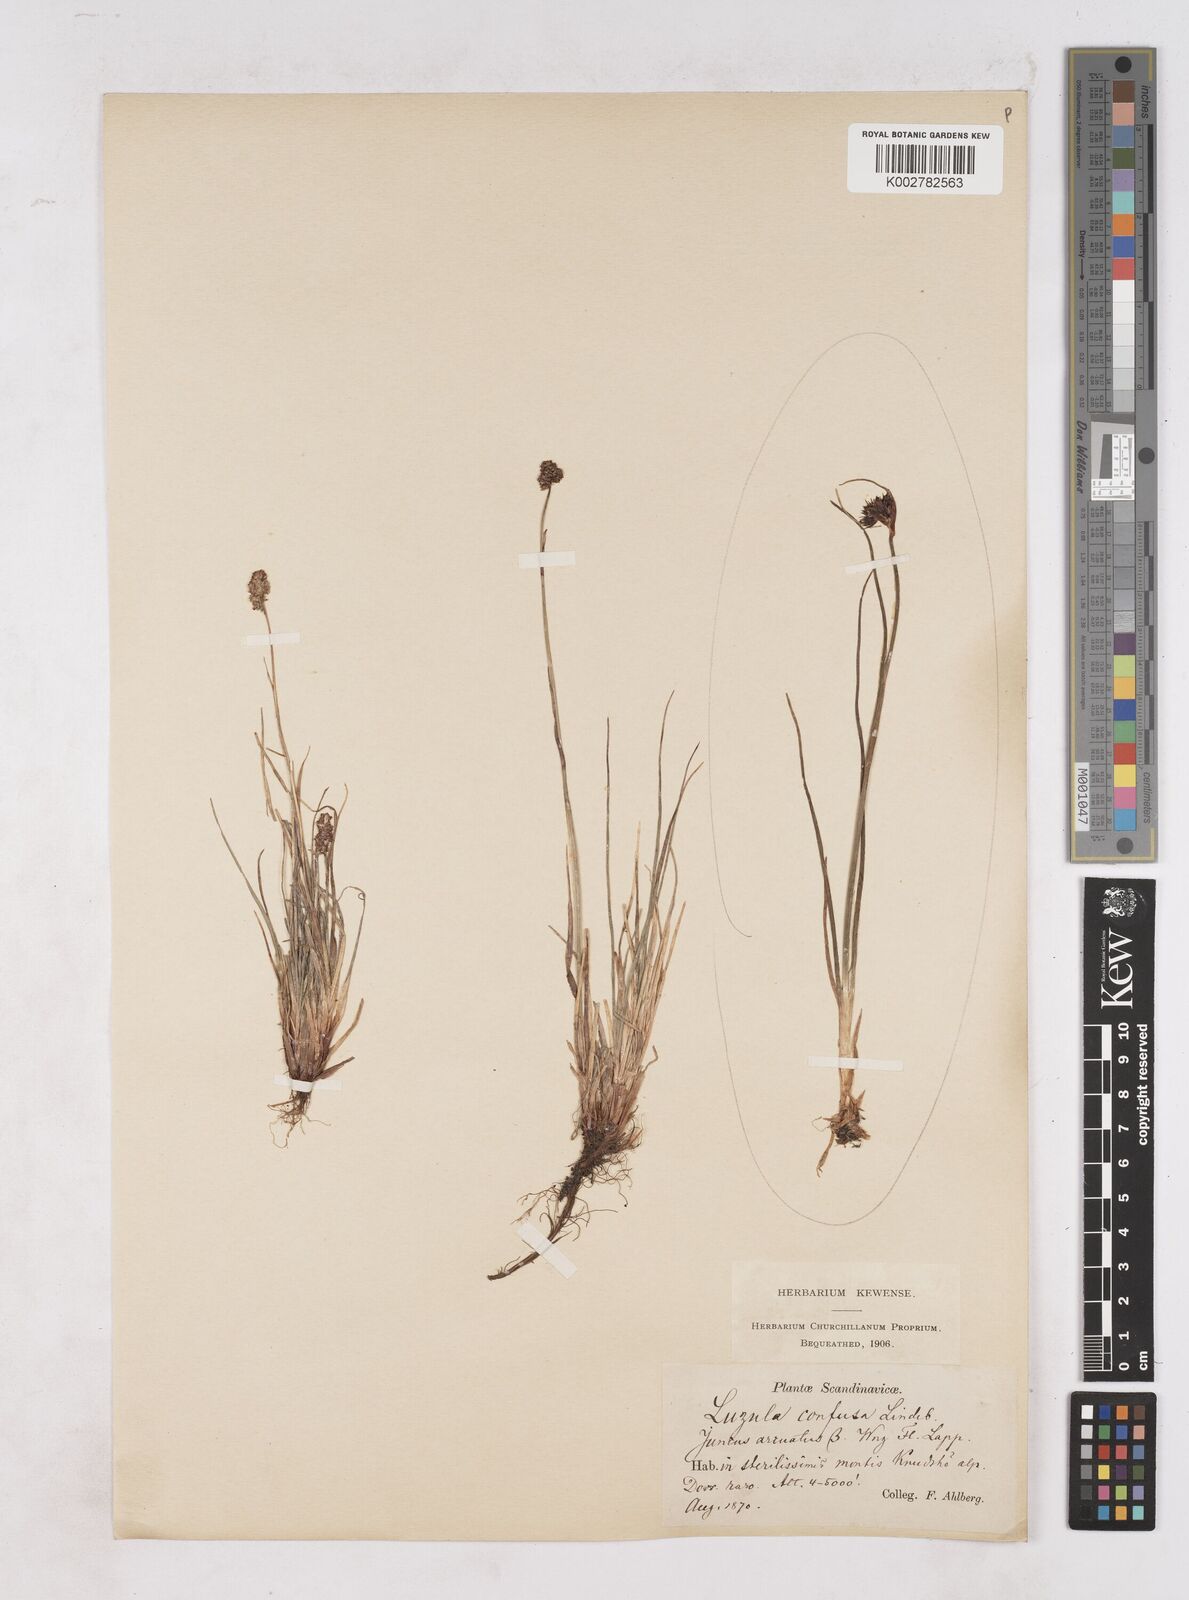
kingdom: Plantae
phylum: Tracheophyta
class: Liliopsida
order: Poales
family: Juncaceae
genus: Luzula
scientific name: Luzula confusa
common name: Northern wood rush
